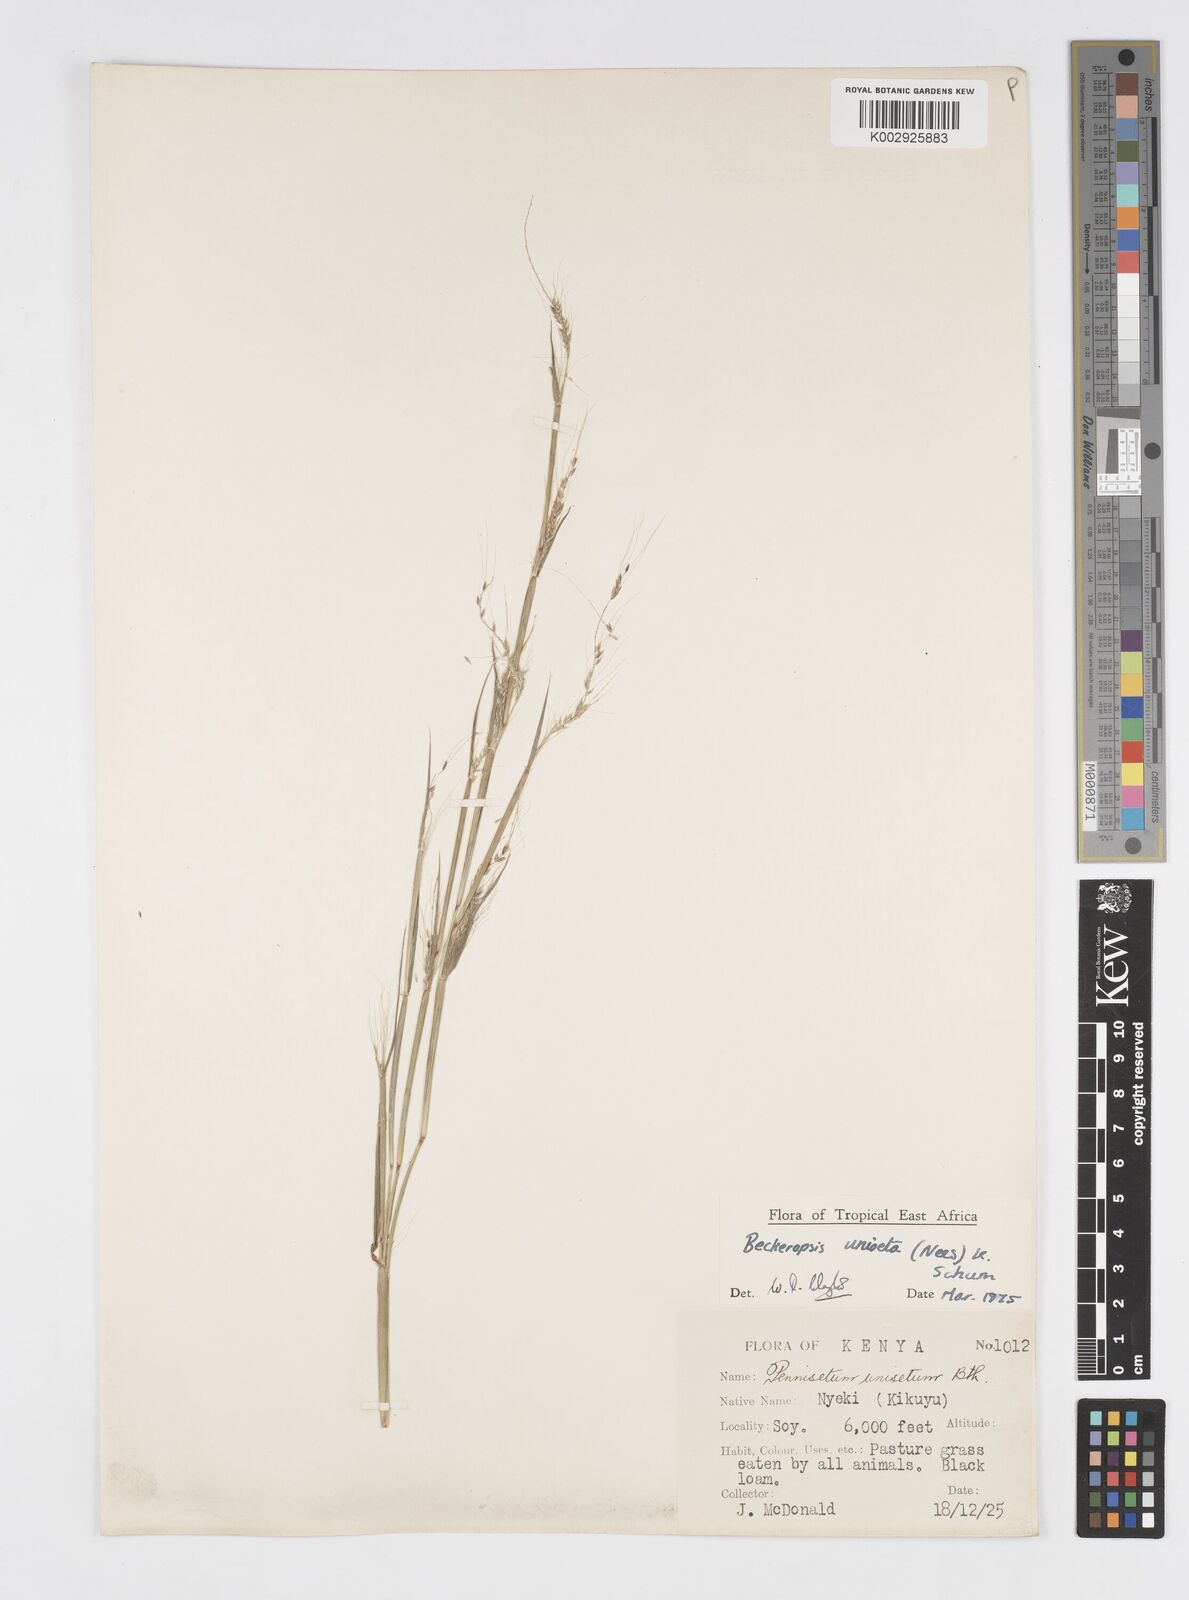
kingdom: Plantae
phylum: Tracheophyta
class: Liliopsida
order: Poales
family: Poaceae
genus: Cenchrus
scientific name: Cenchrus Pennisetum spec
